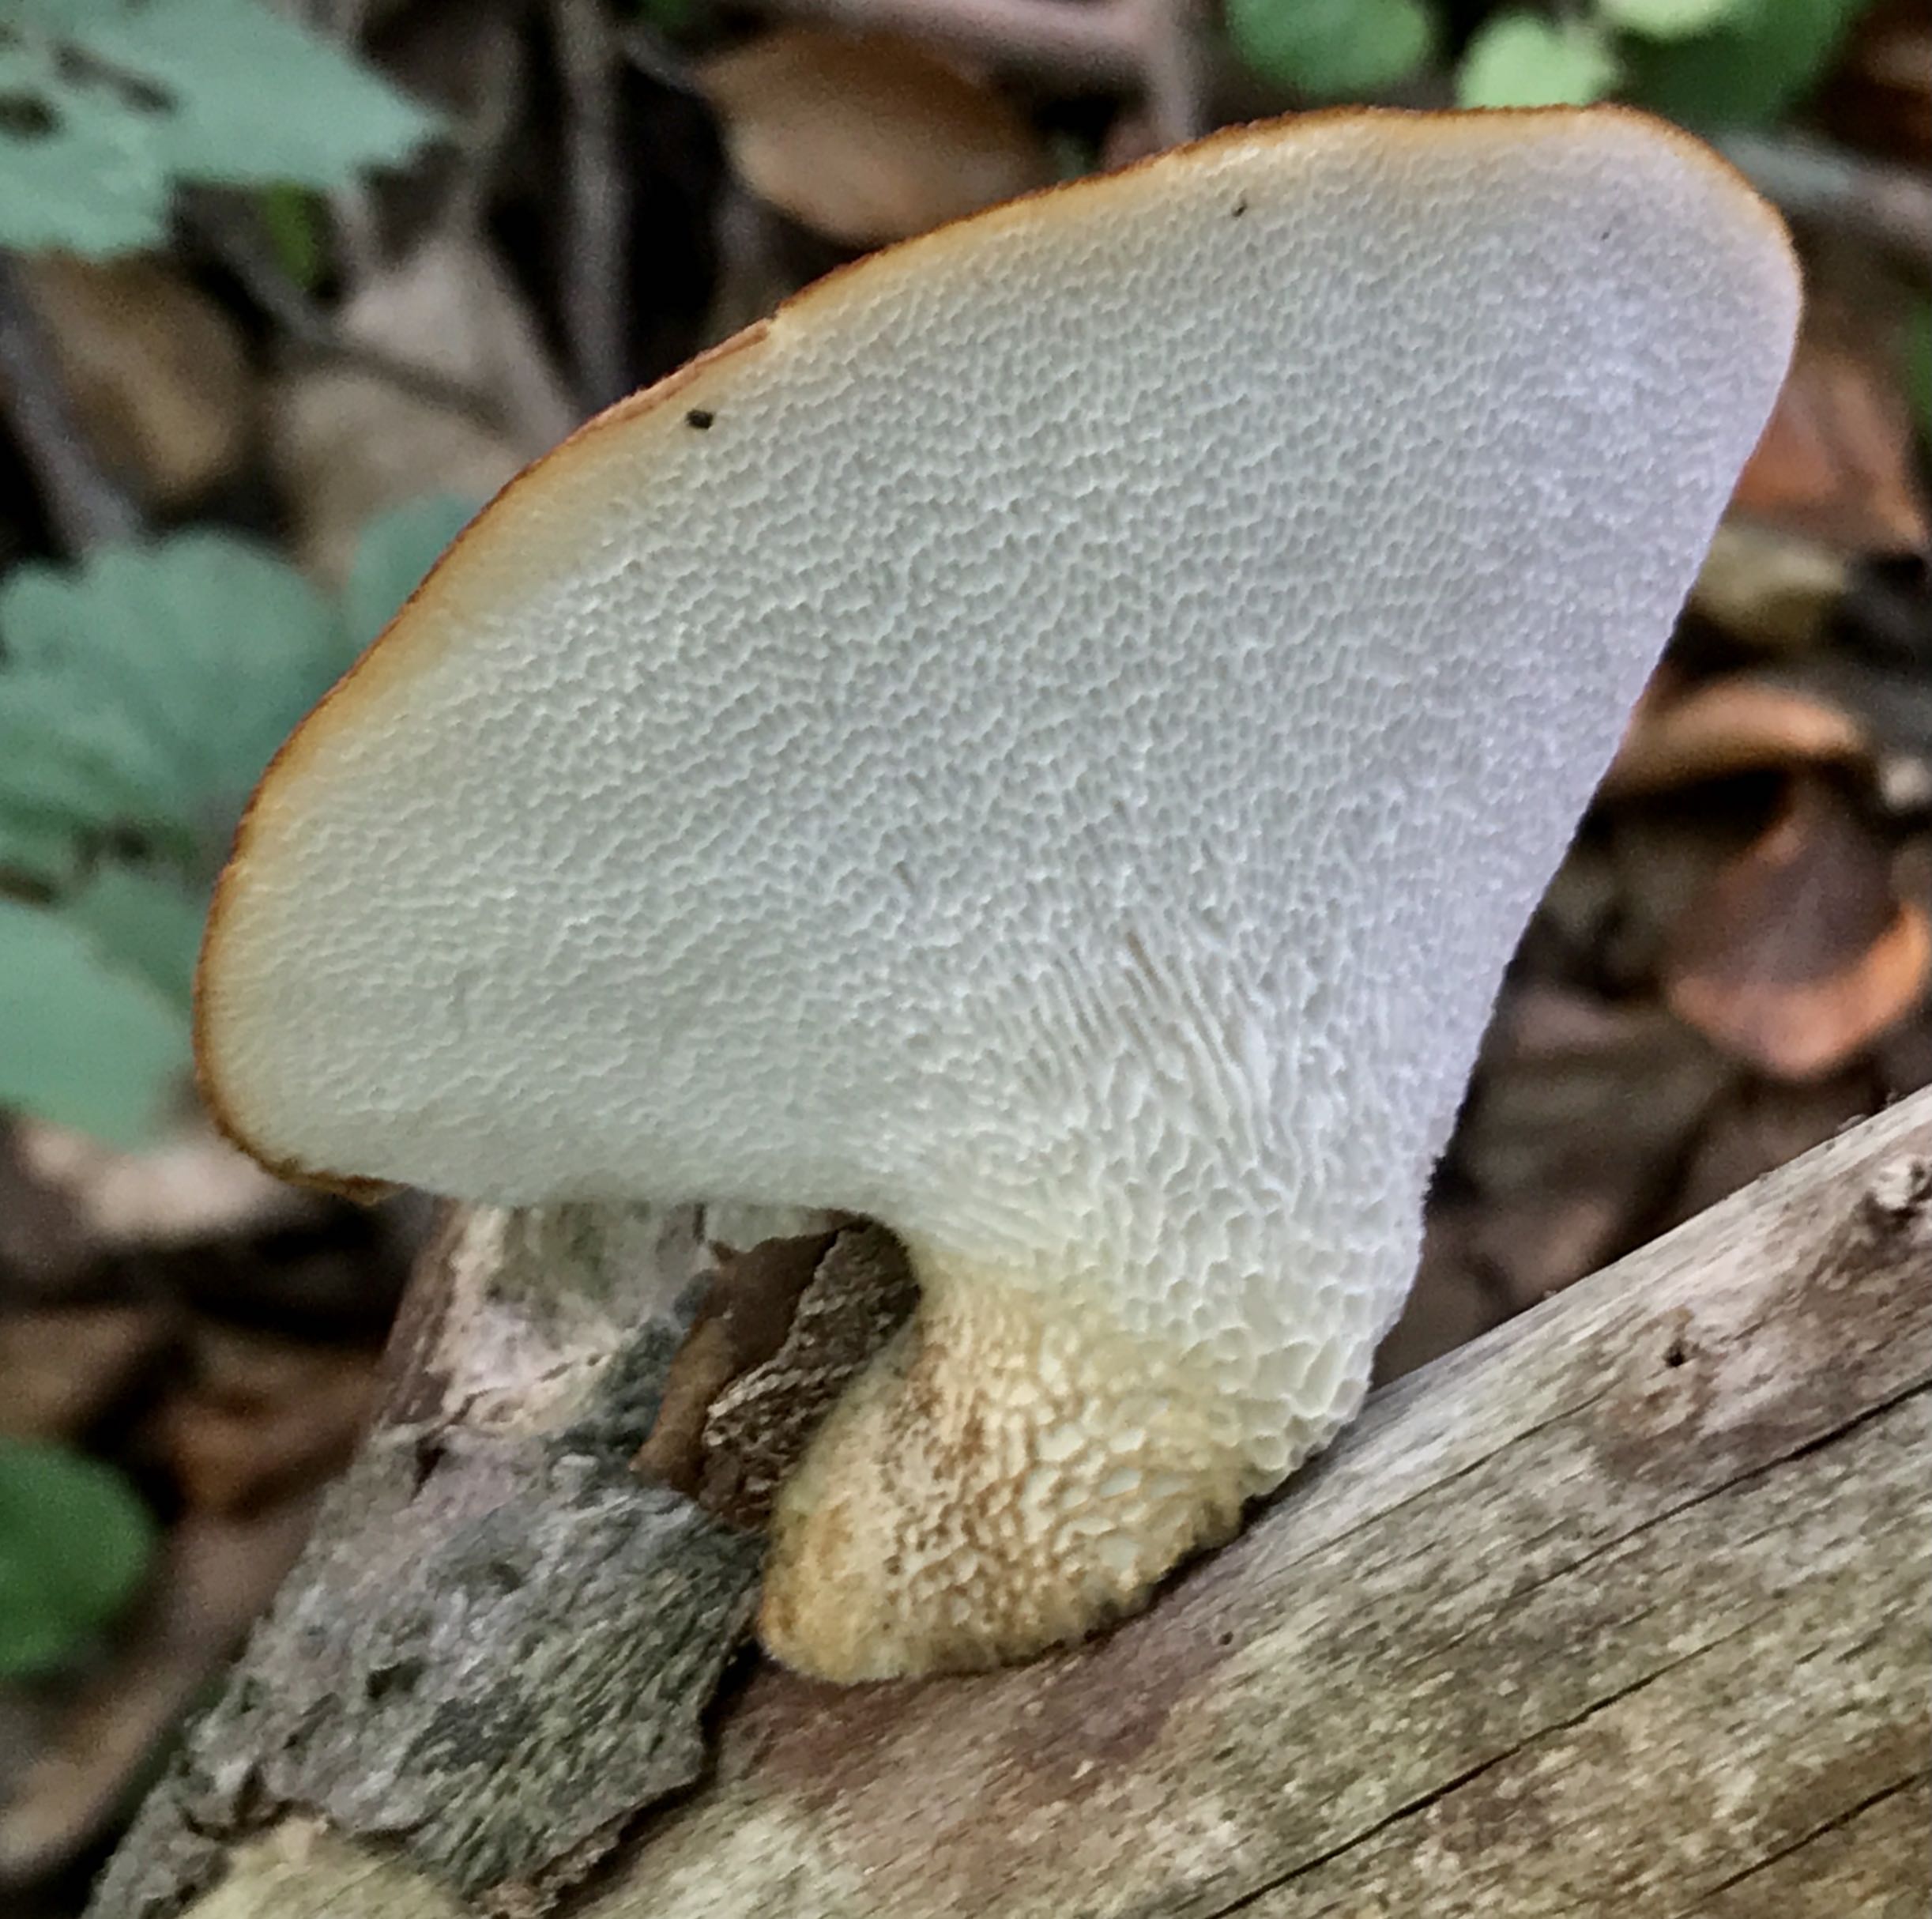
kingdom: Fungi
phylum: Basidiomycota
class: Agaricomycetes
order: Polyporales
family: Polyporaceae
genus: Polyporus
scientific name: Polyporus tuberaster
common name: knoldet stilkporesvamp
